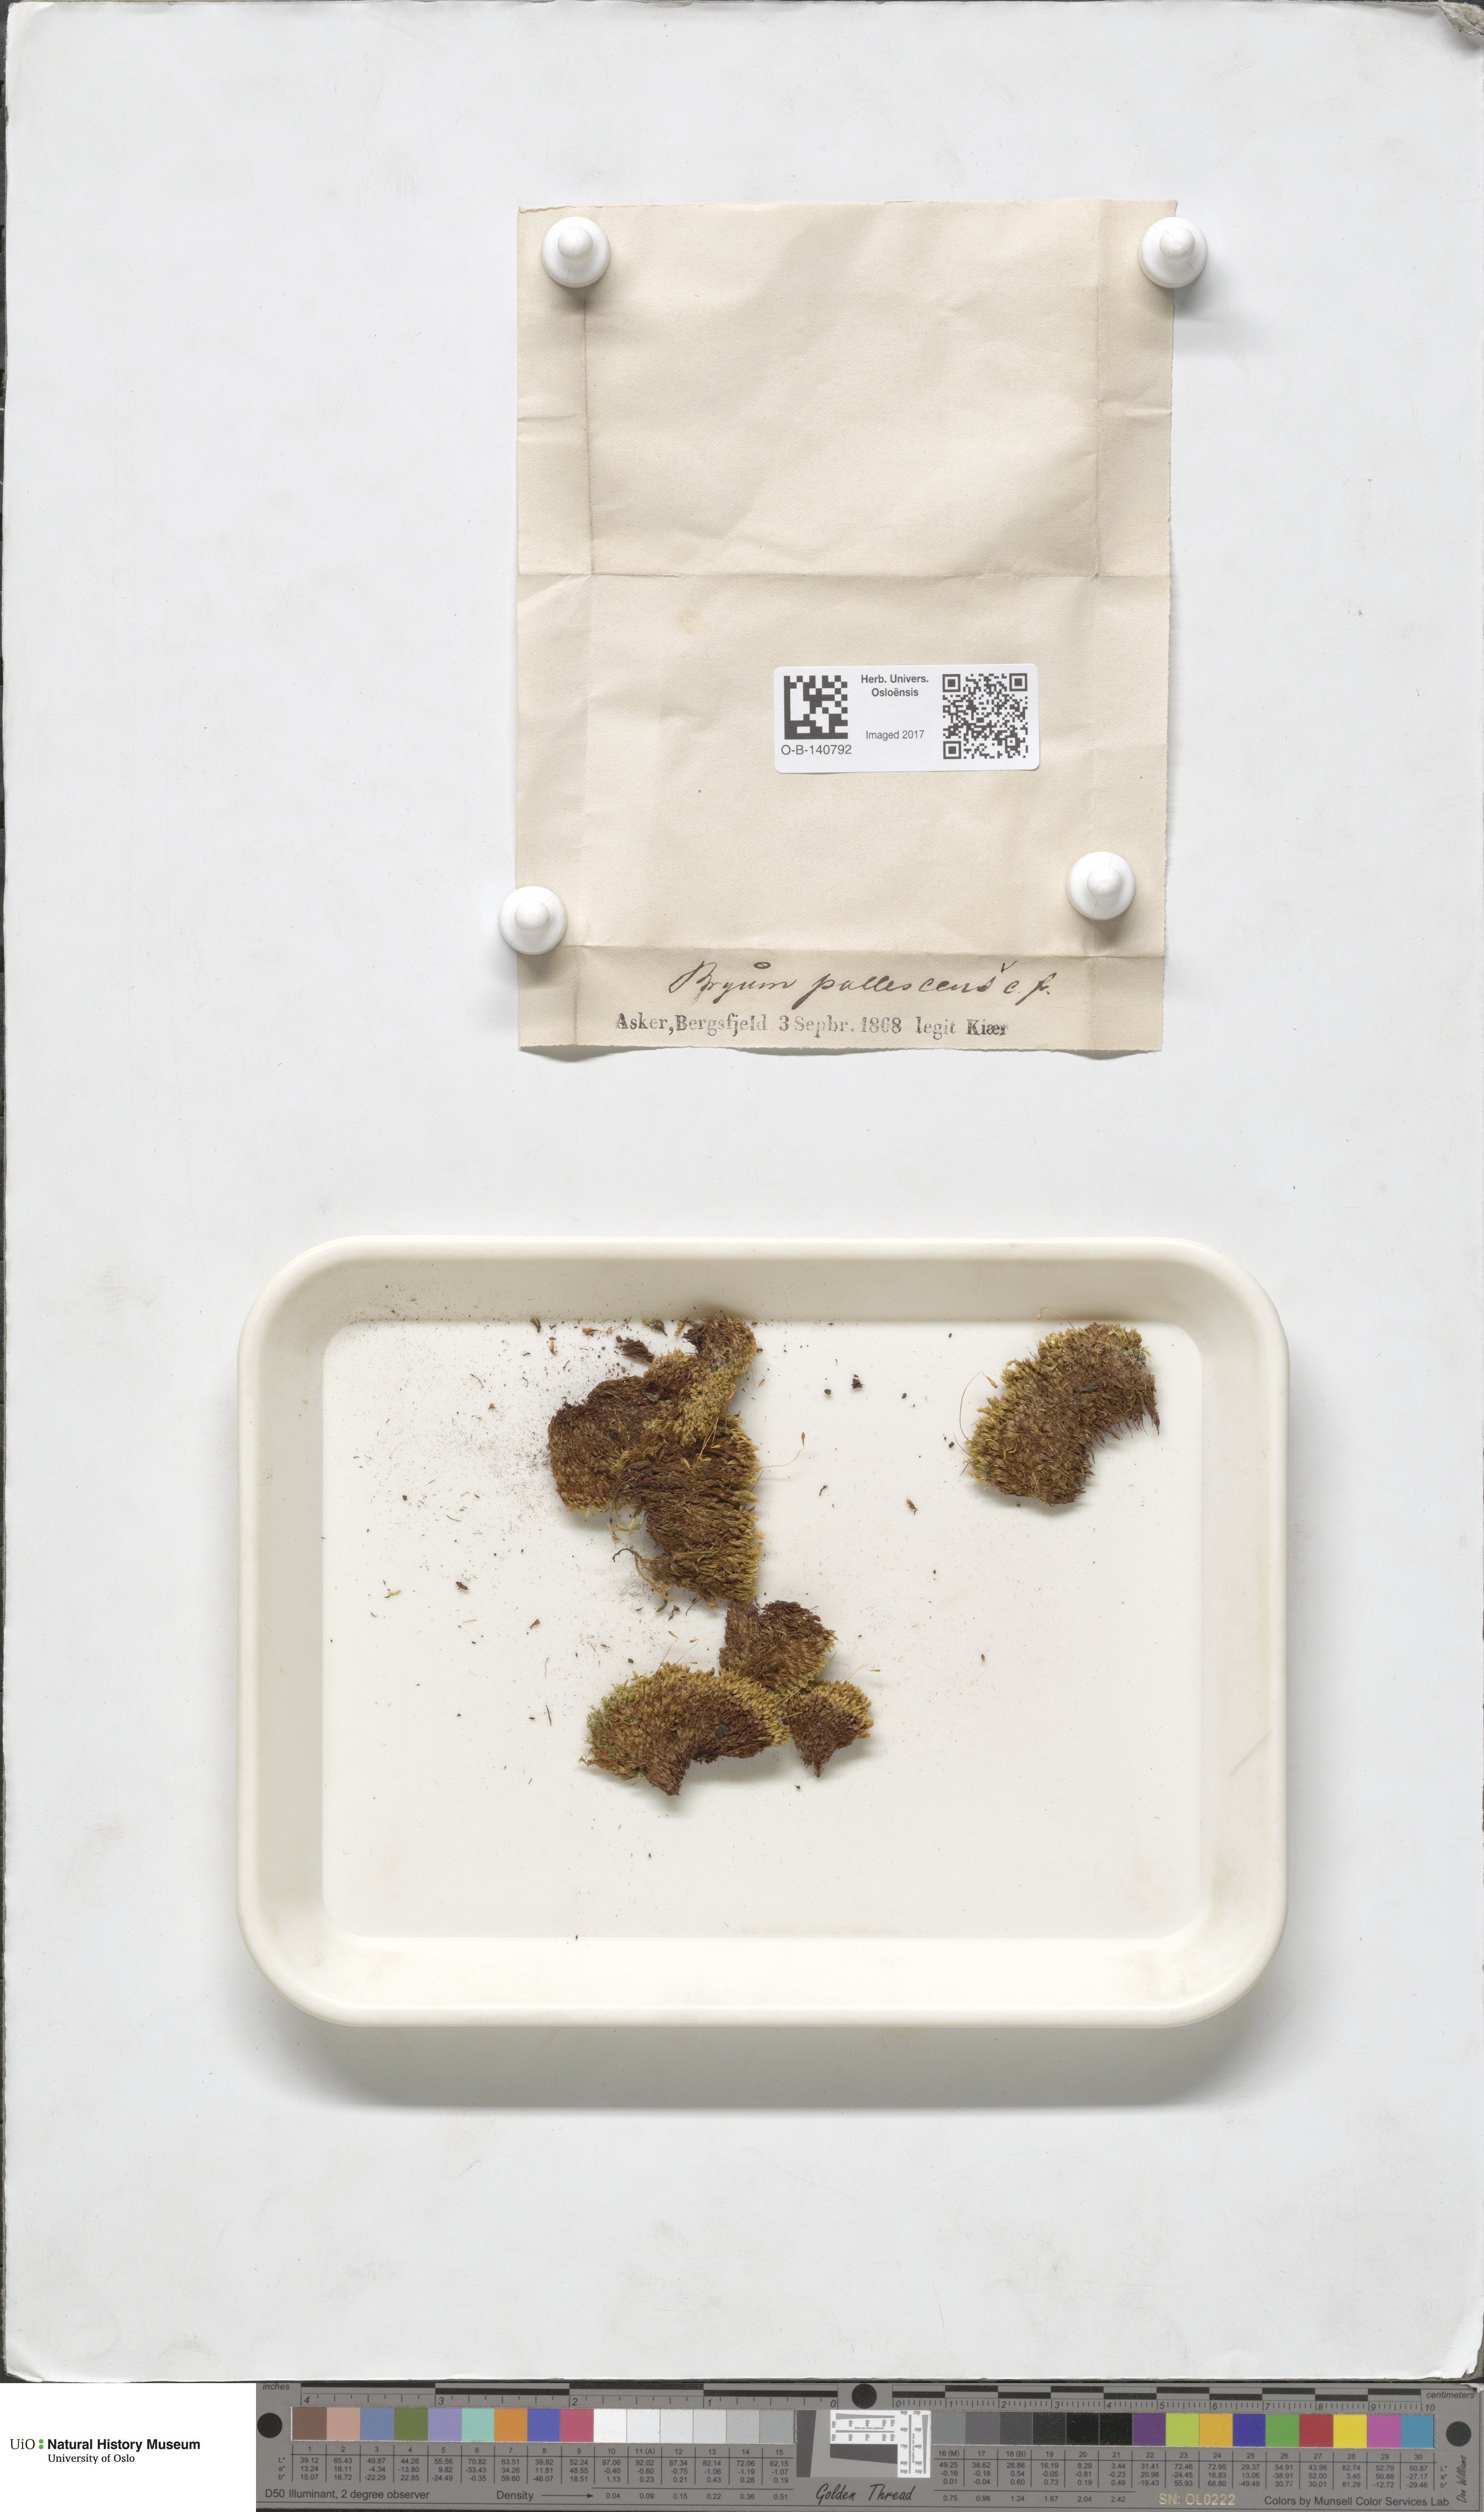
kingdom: Plantae
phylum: Bryophyta
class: Bryopsida
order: Bryales
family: Bryaceae
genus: Ptychostomum
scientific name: Ptychostomum pallescens
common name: Tall-clustered thread-moss
